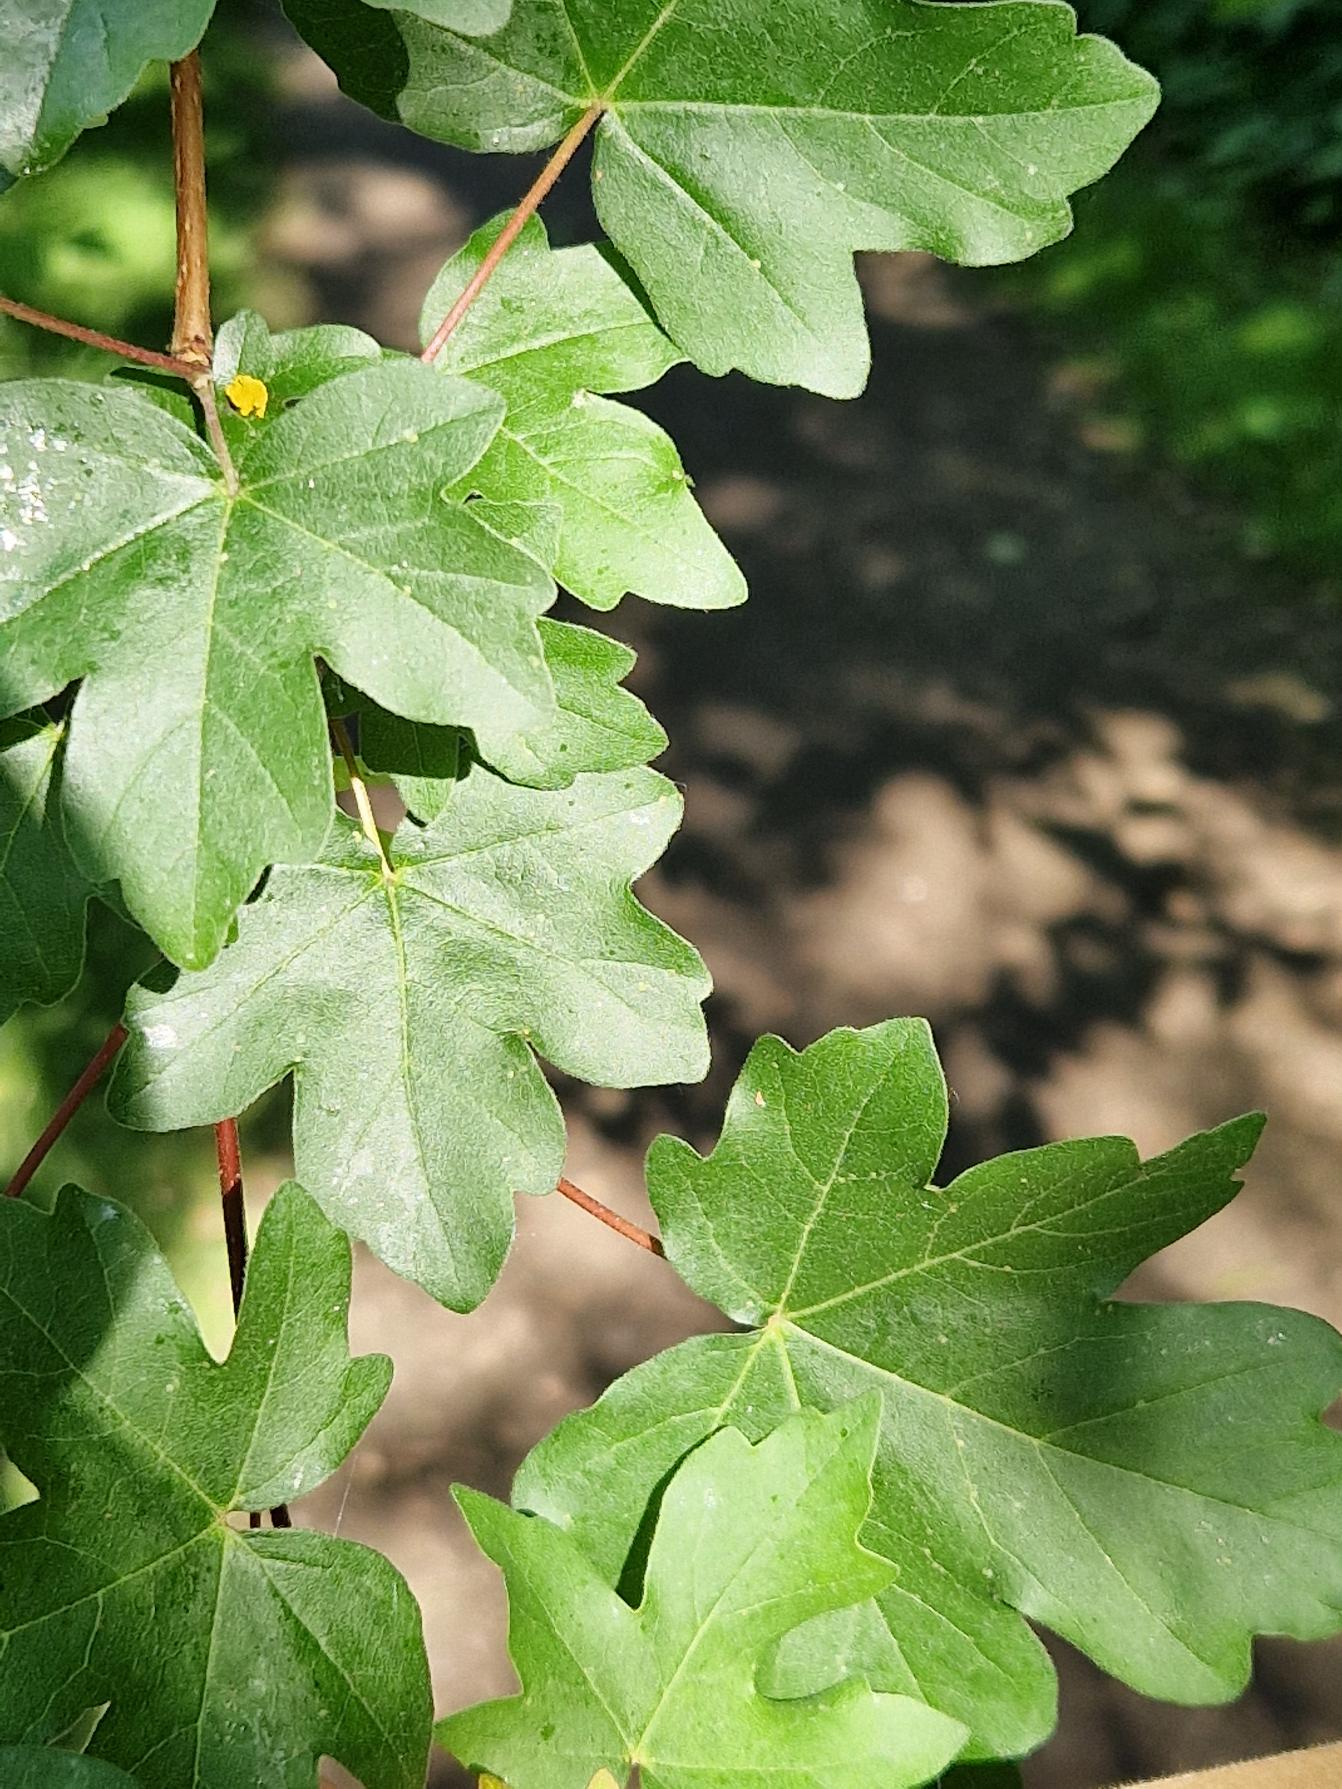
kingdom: Plantae
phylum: Tracheophyta
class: Magnoliopsida
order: Sapindales
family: Sapindaceae
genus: Acer
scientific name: Acer campestre
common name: Navr
